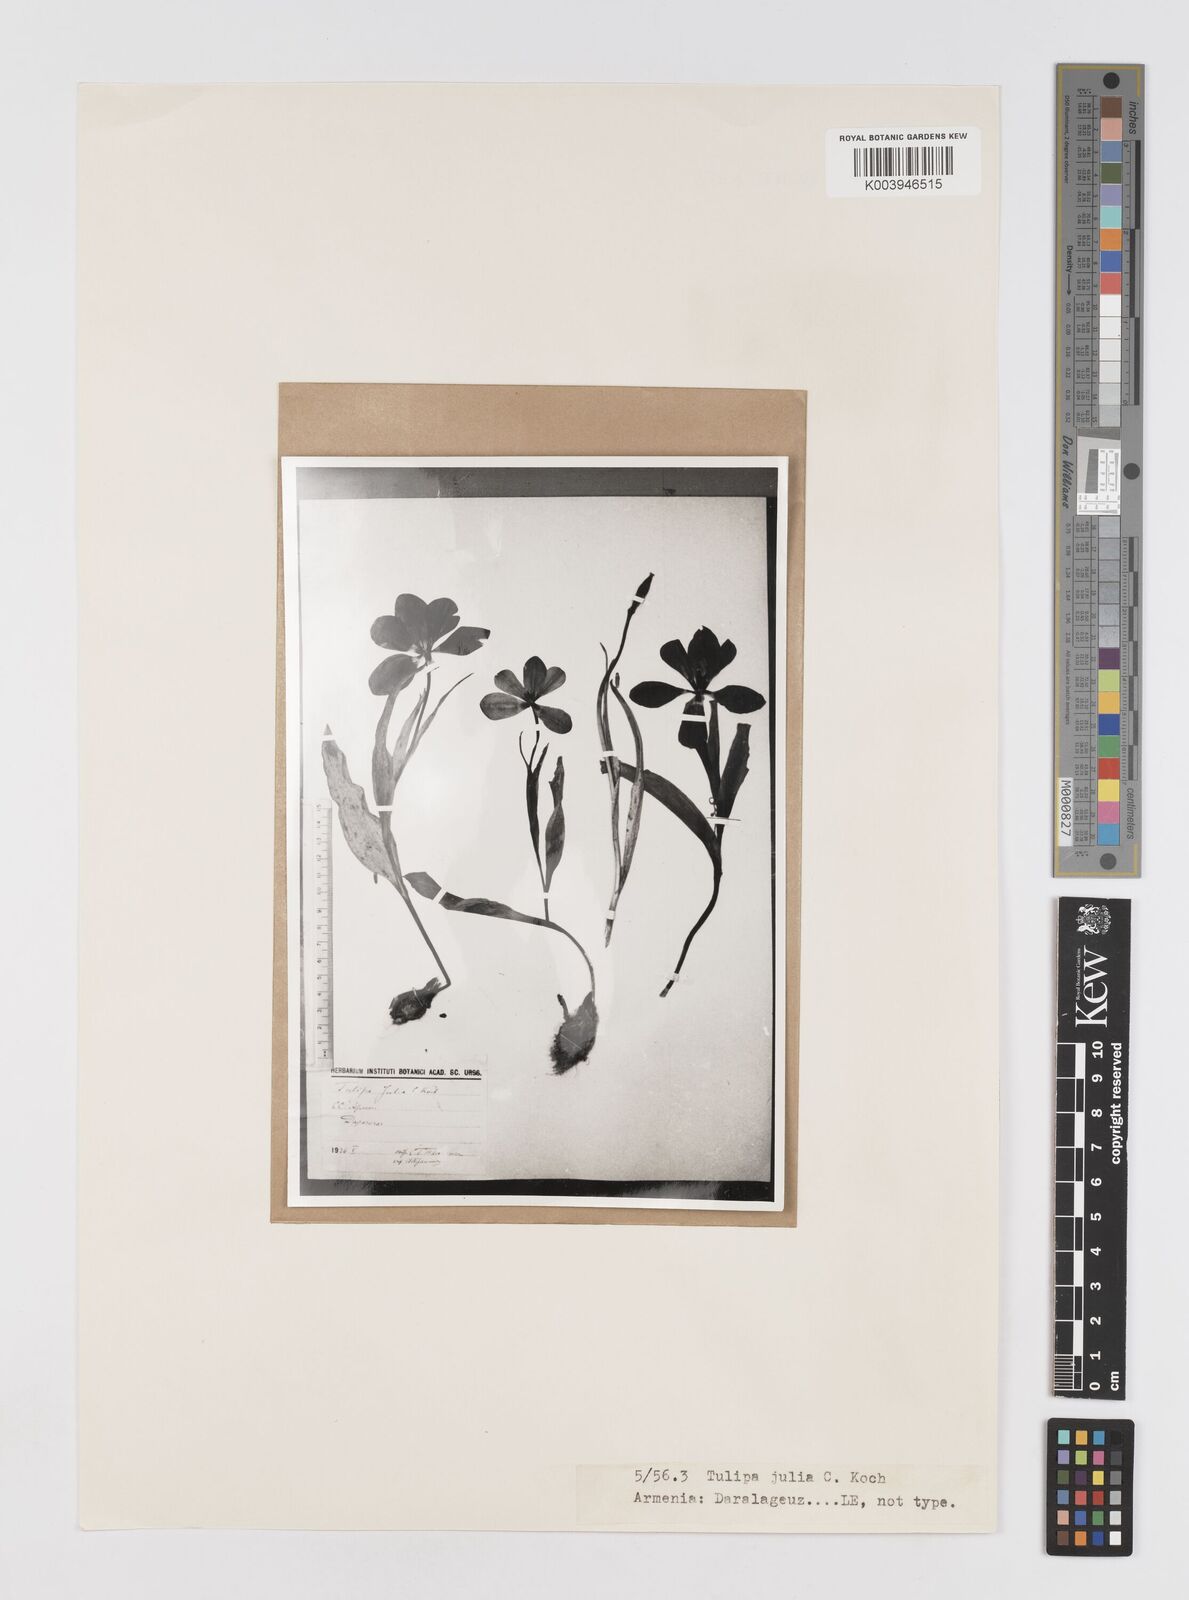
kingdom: Plantae
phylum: Tracheophyta
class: Liliopsida
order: Liliales
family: Liliaceae
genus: Tulipa
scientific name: Tulipa
